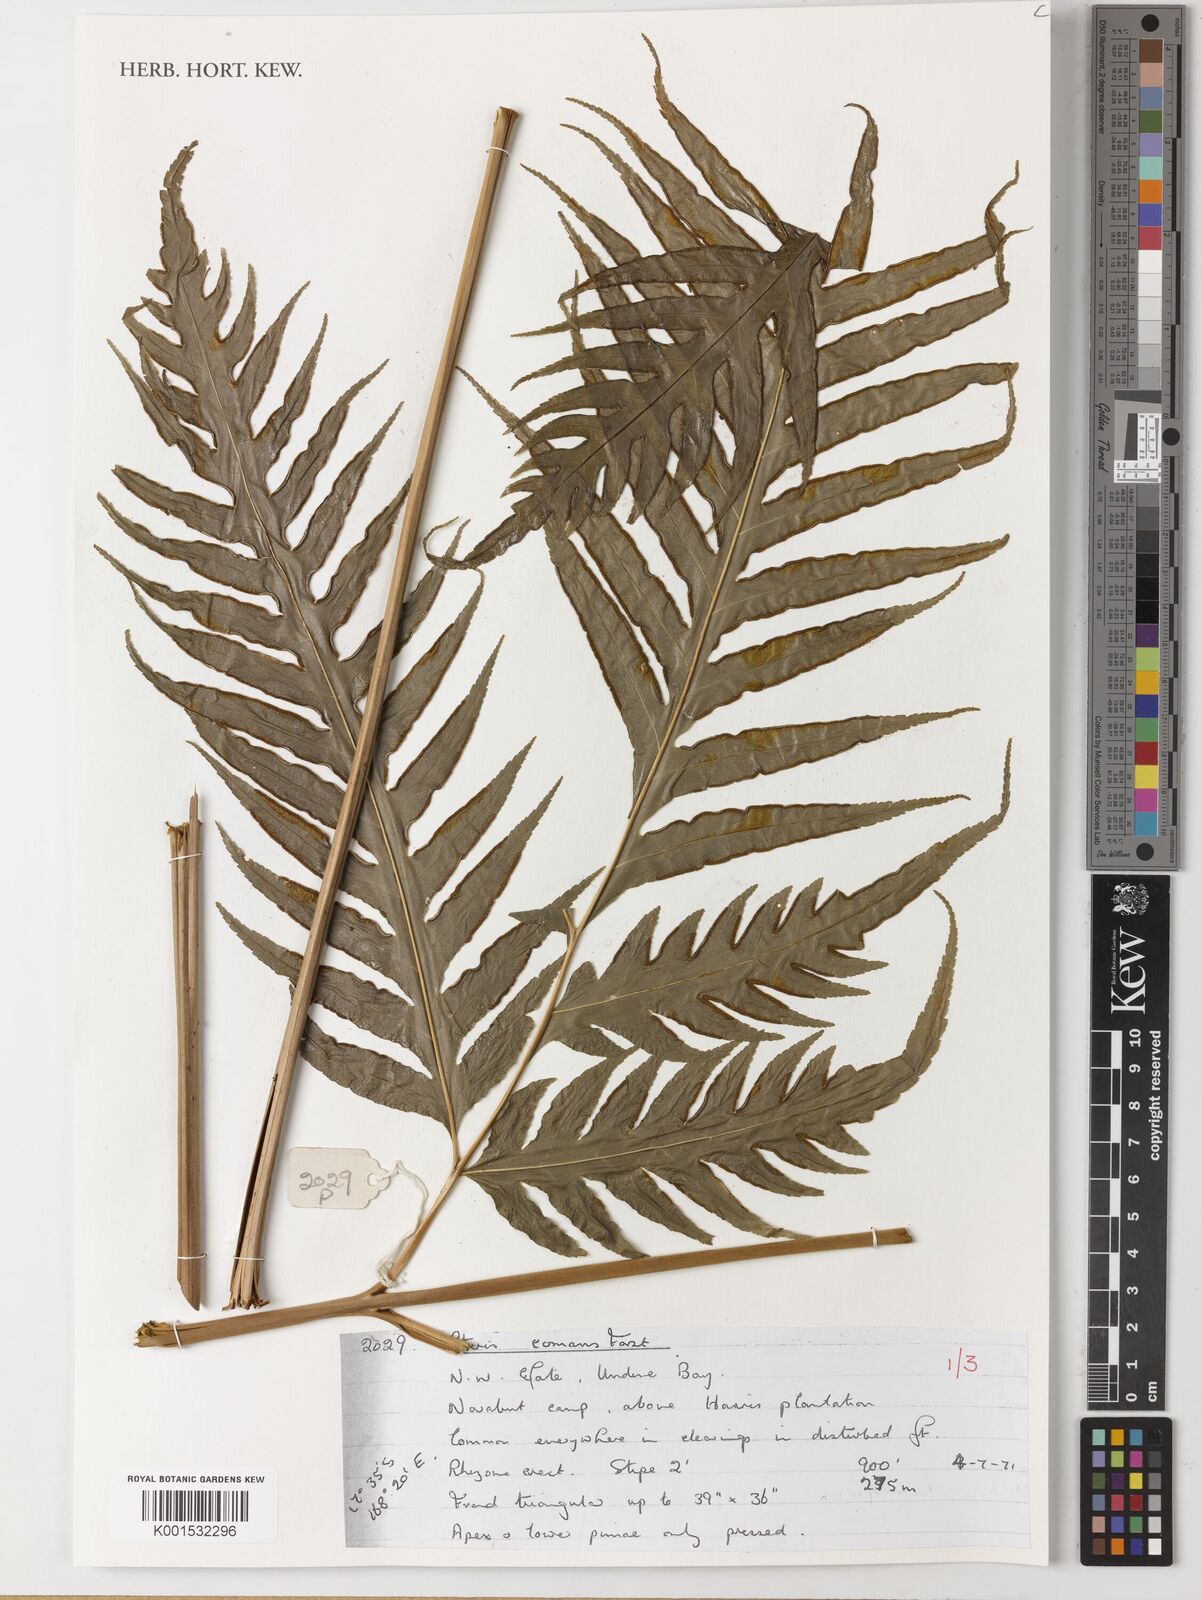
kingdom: Plantae
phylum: Tracheophyta
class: Polypodiopsida
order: Polypodiales
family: Pteridaceae
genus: Pteris
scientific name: Pteris comans
